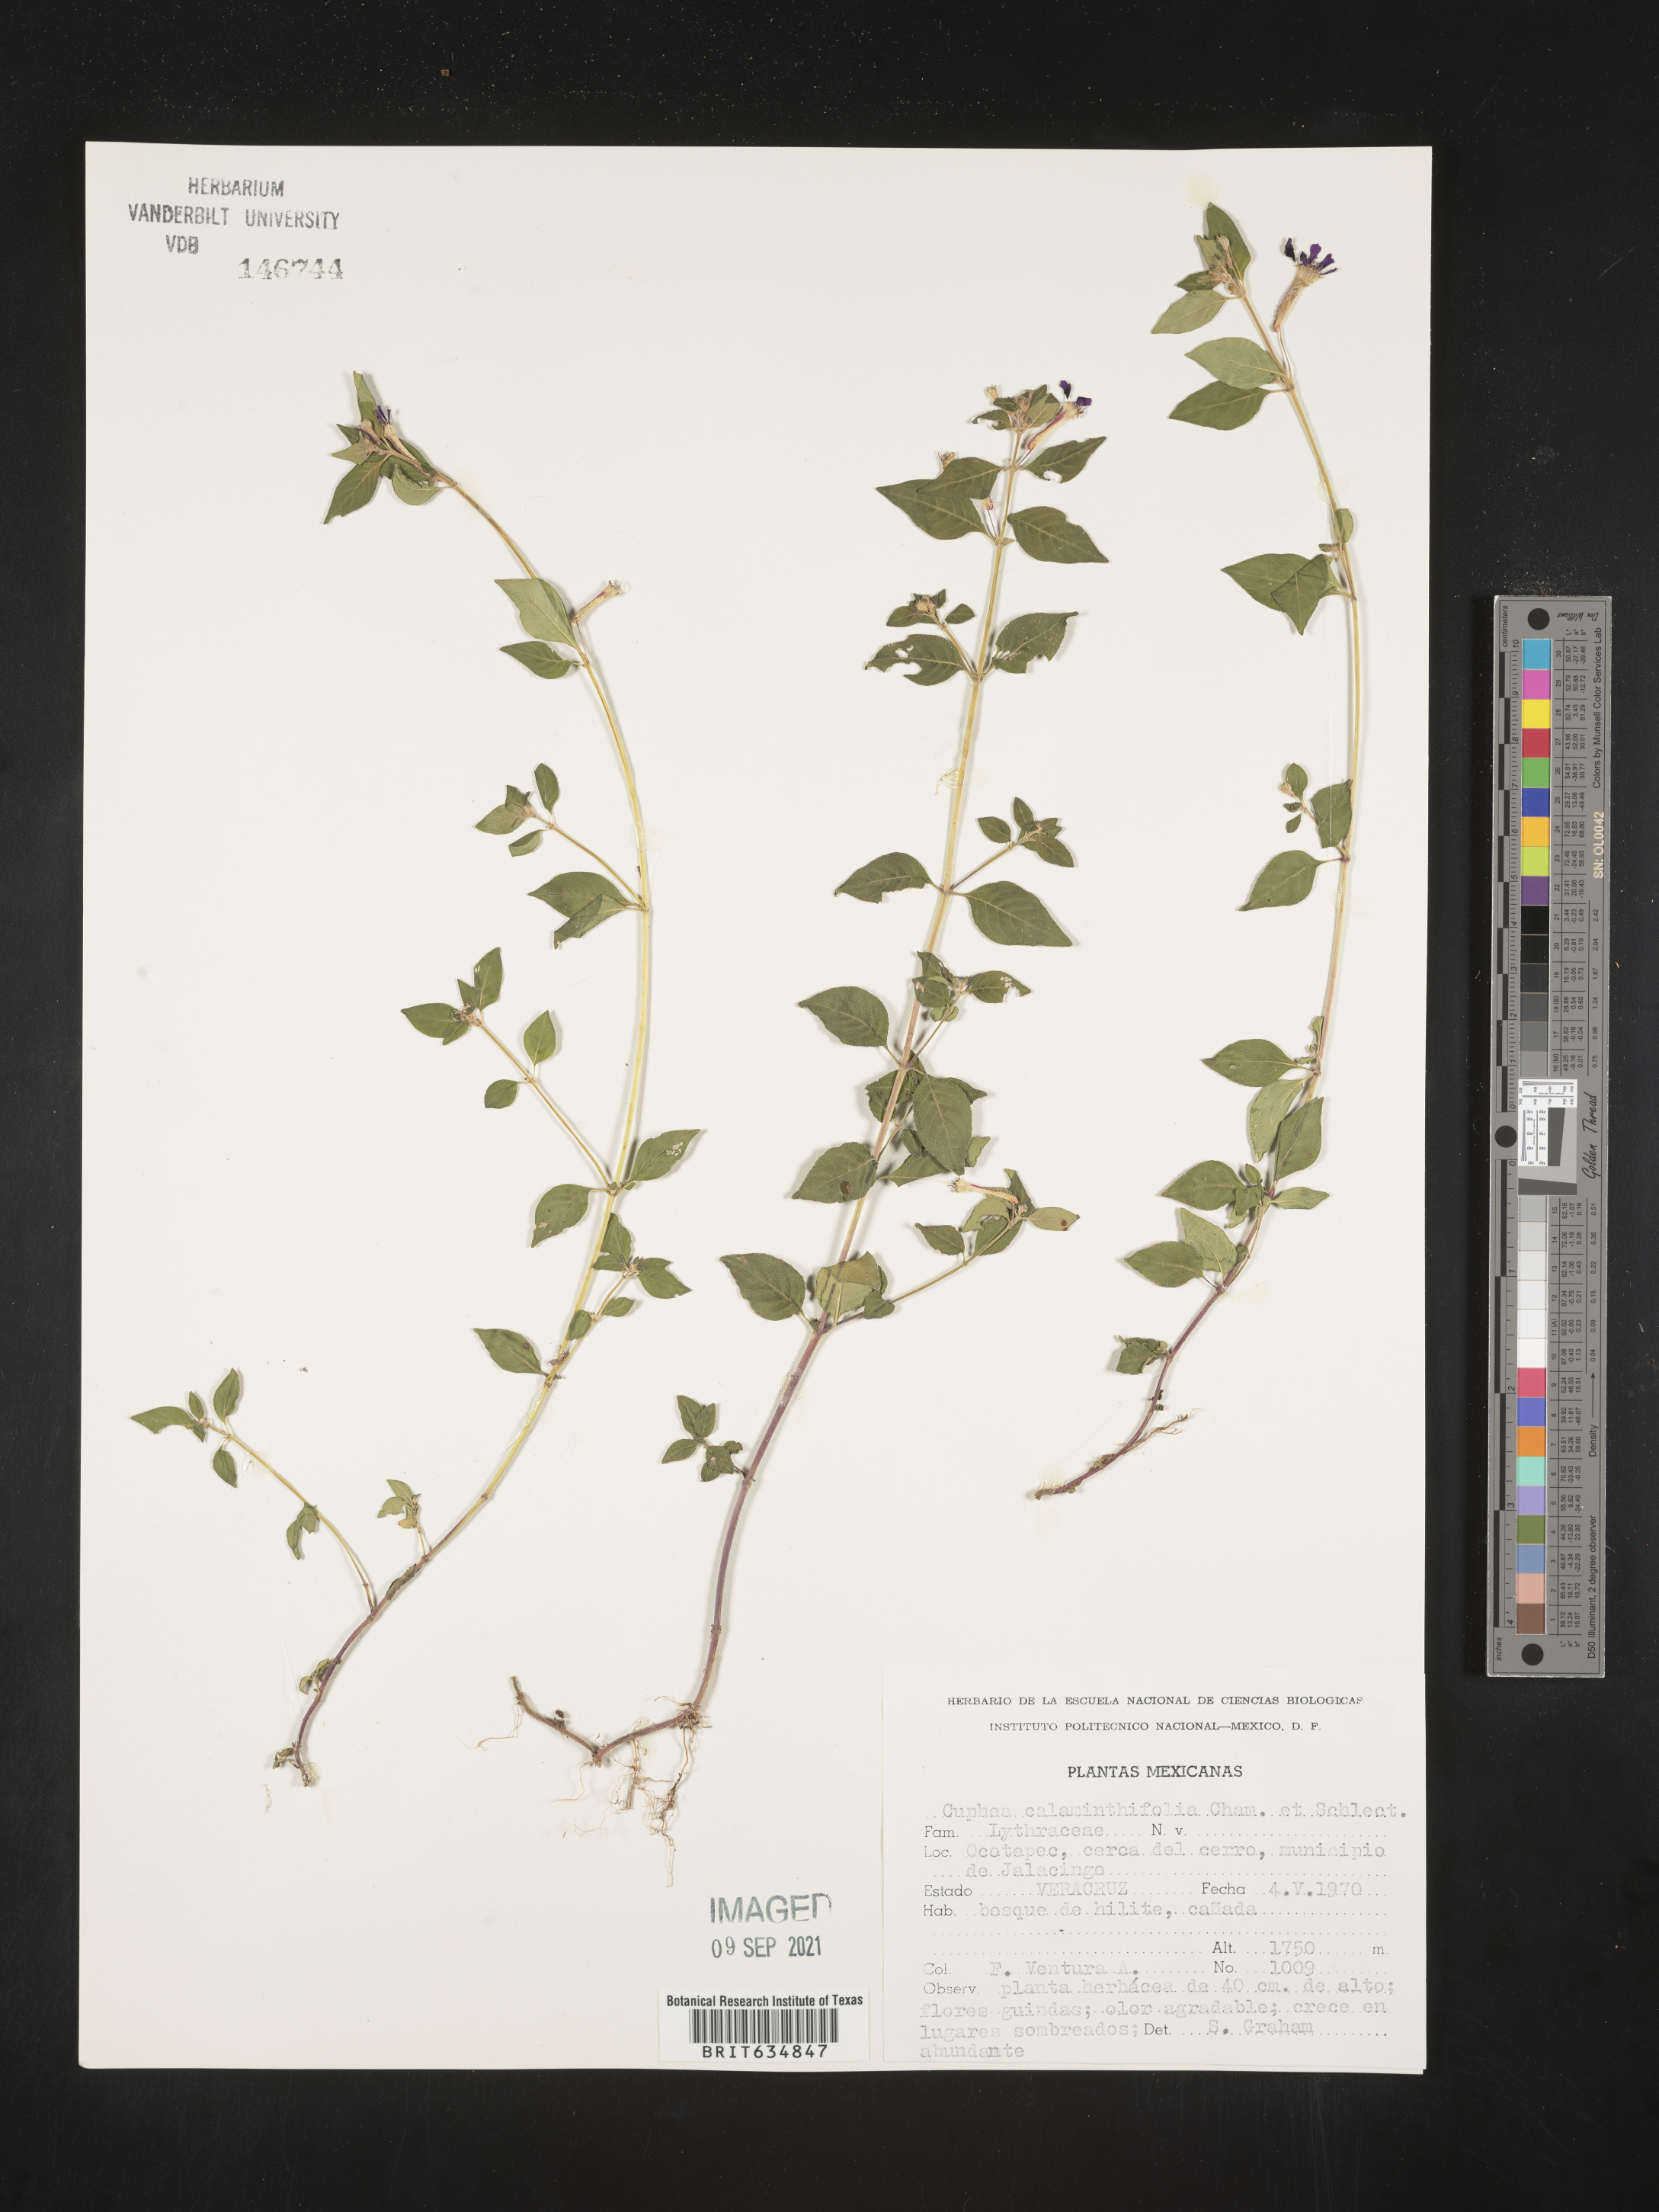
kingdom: Plantae
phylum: Tracheophyta
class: Magnoliopsida
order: Myrtales
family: Lythraceae
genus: Cuphea
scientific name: Cuphea
